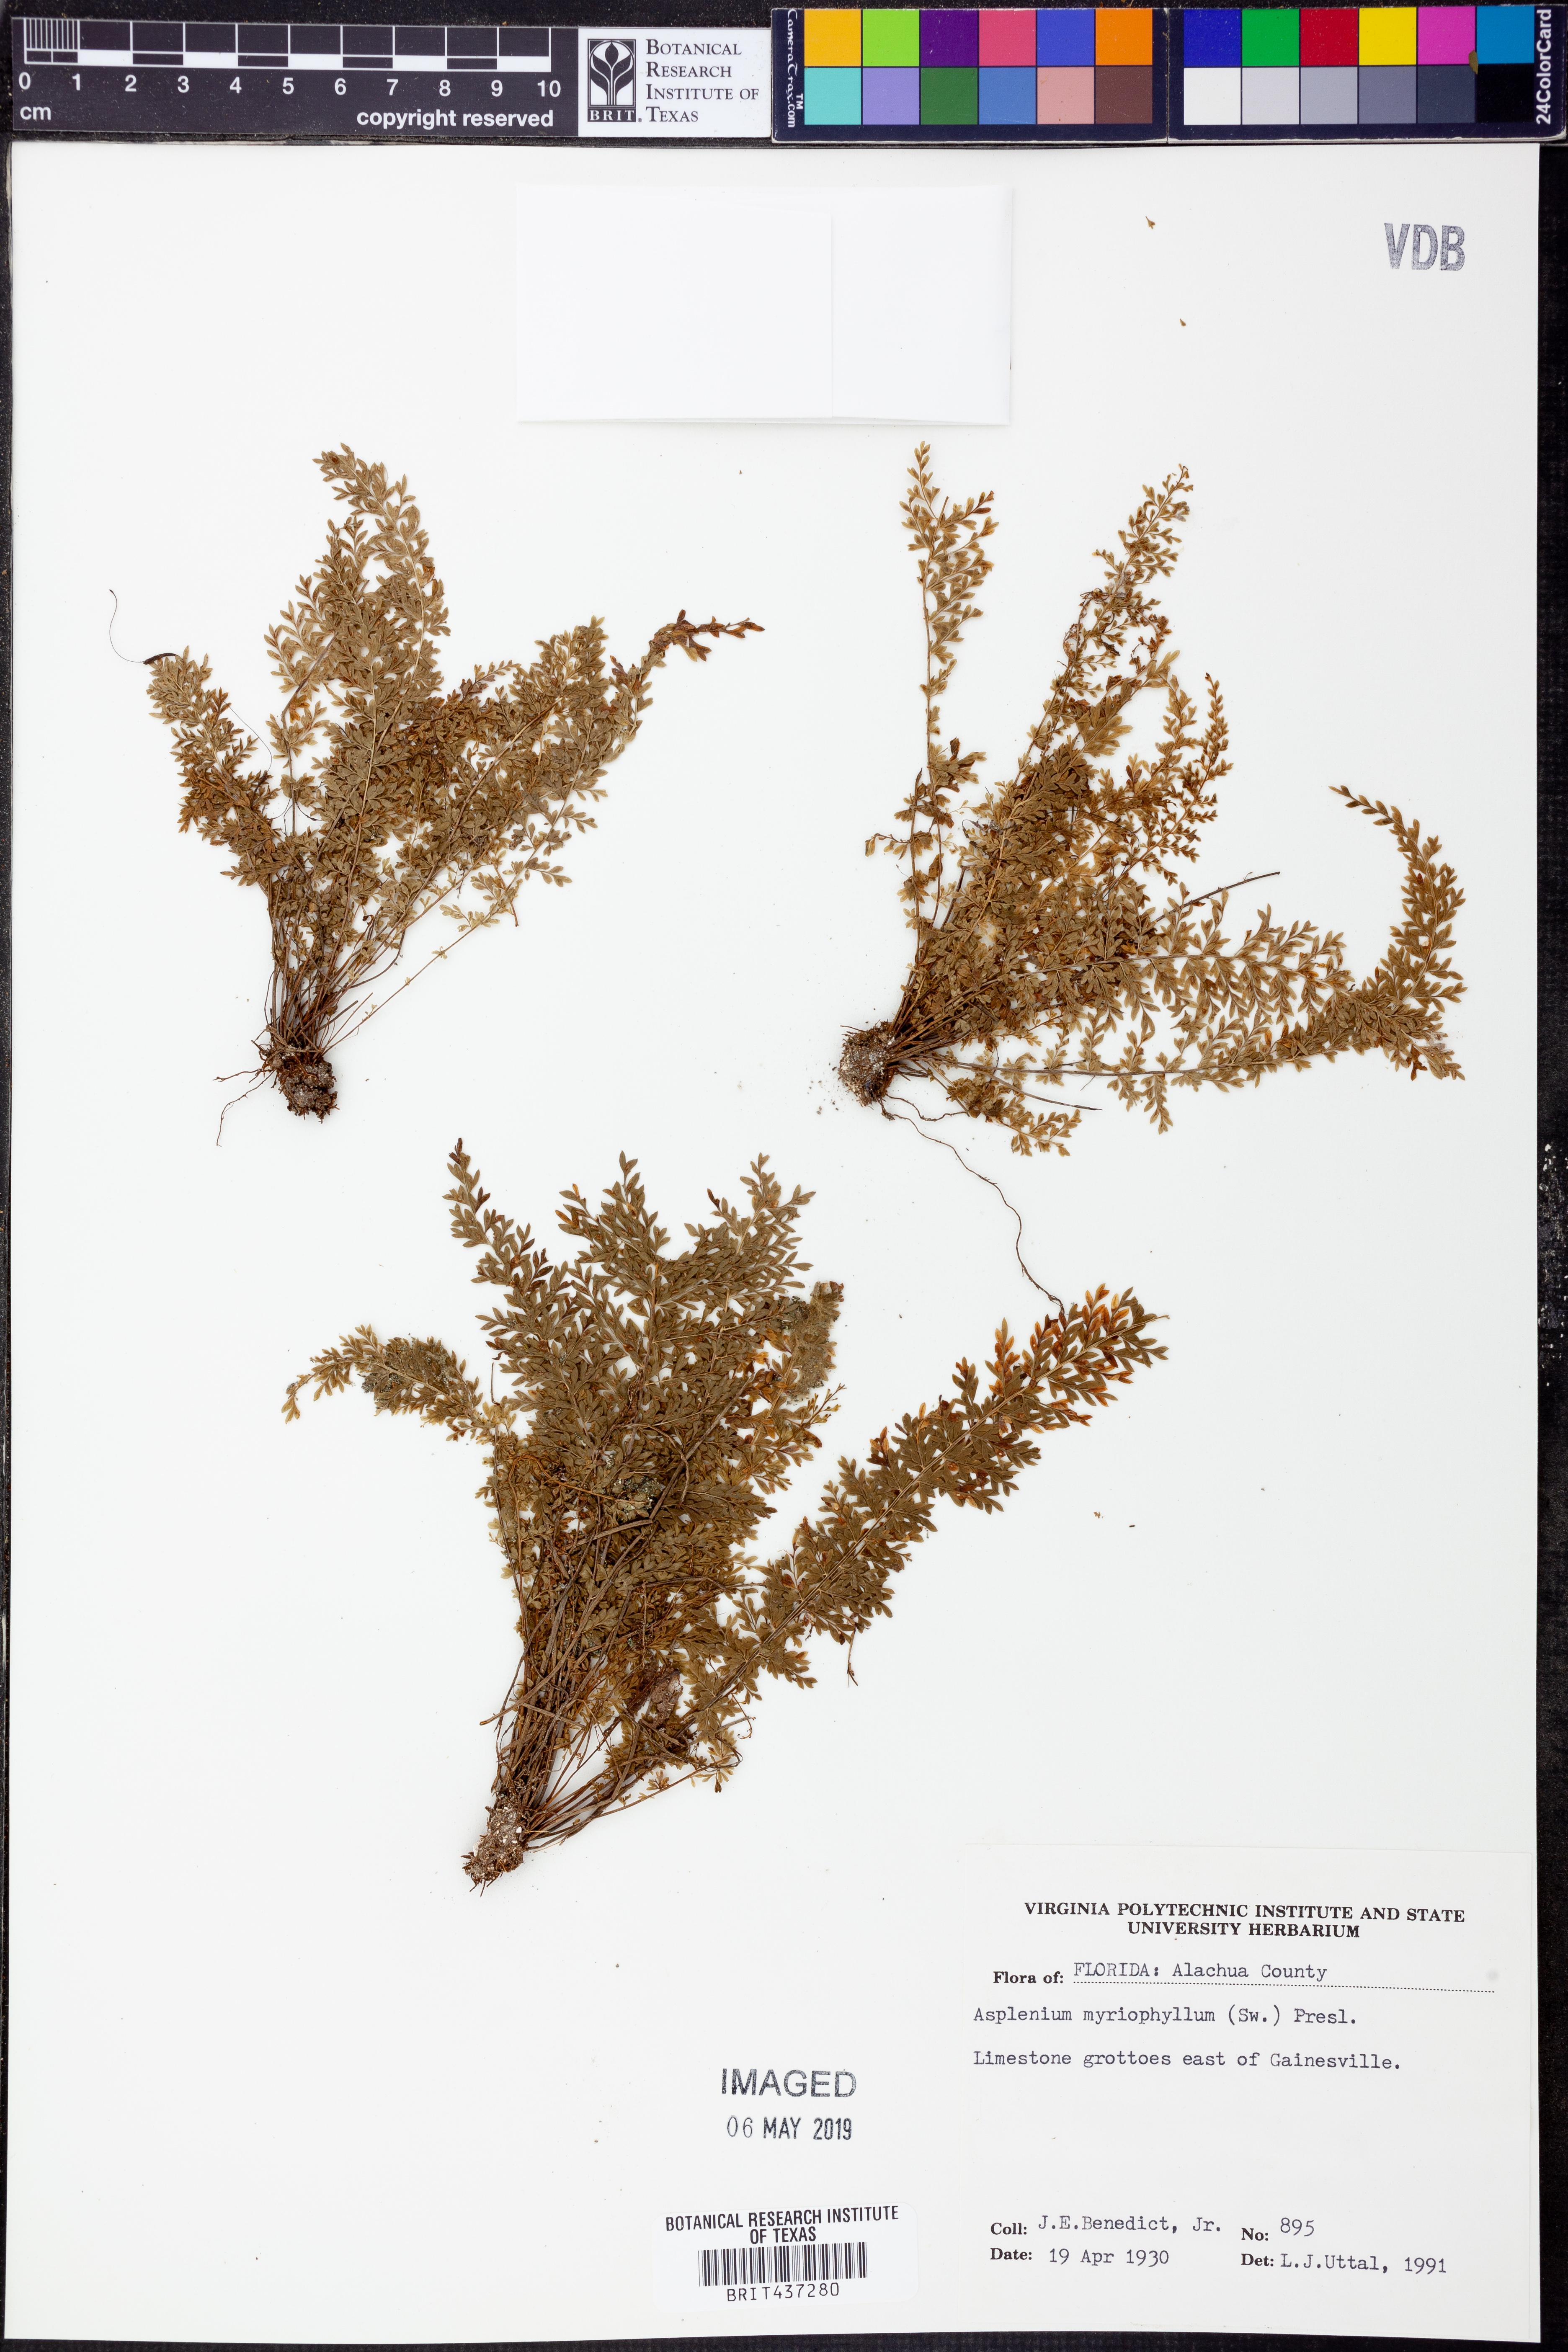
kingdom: Plantae
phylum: Tracheophyta
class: Polypodiopsida
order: Polypodiales
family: Aspleniaceae
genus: Asplenium
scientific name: Asplenium myriophyllum
